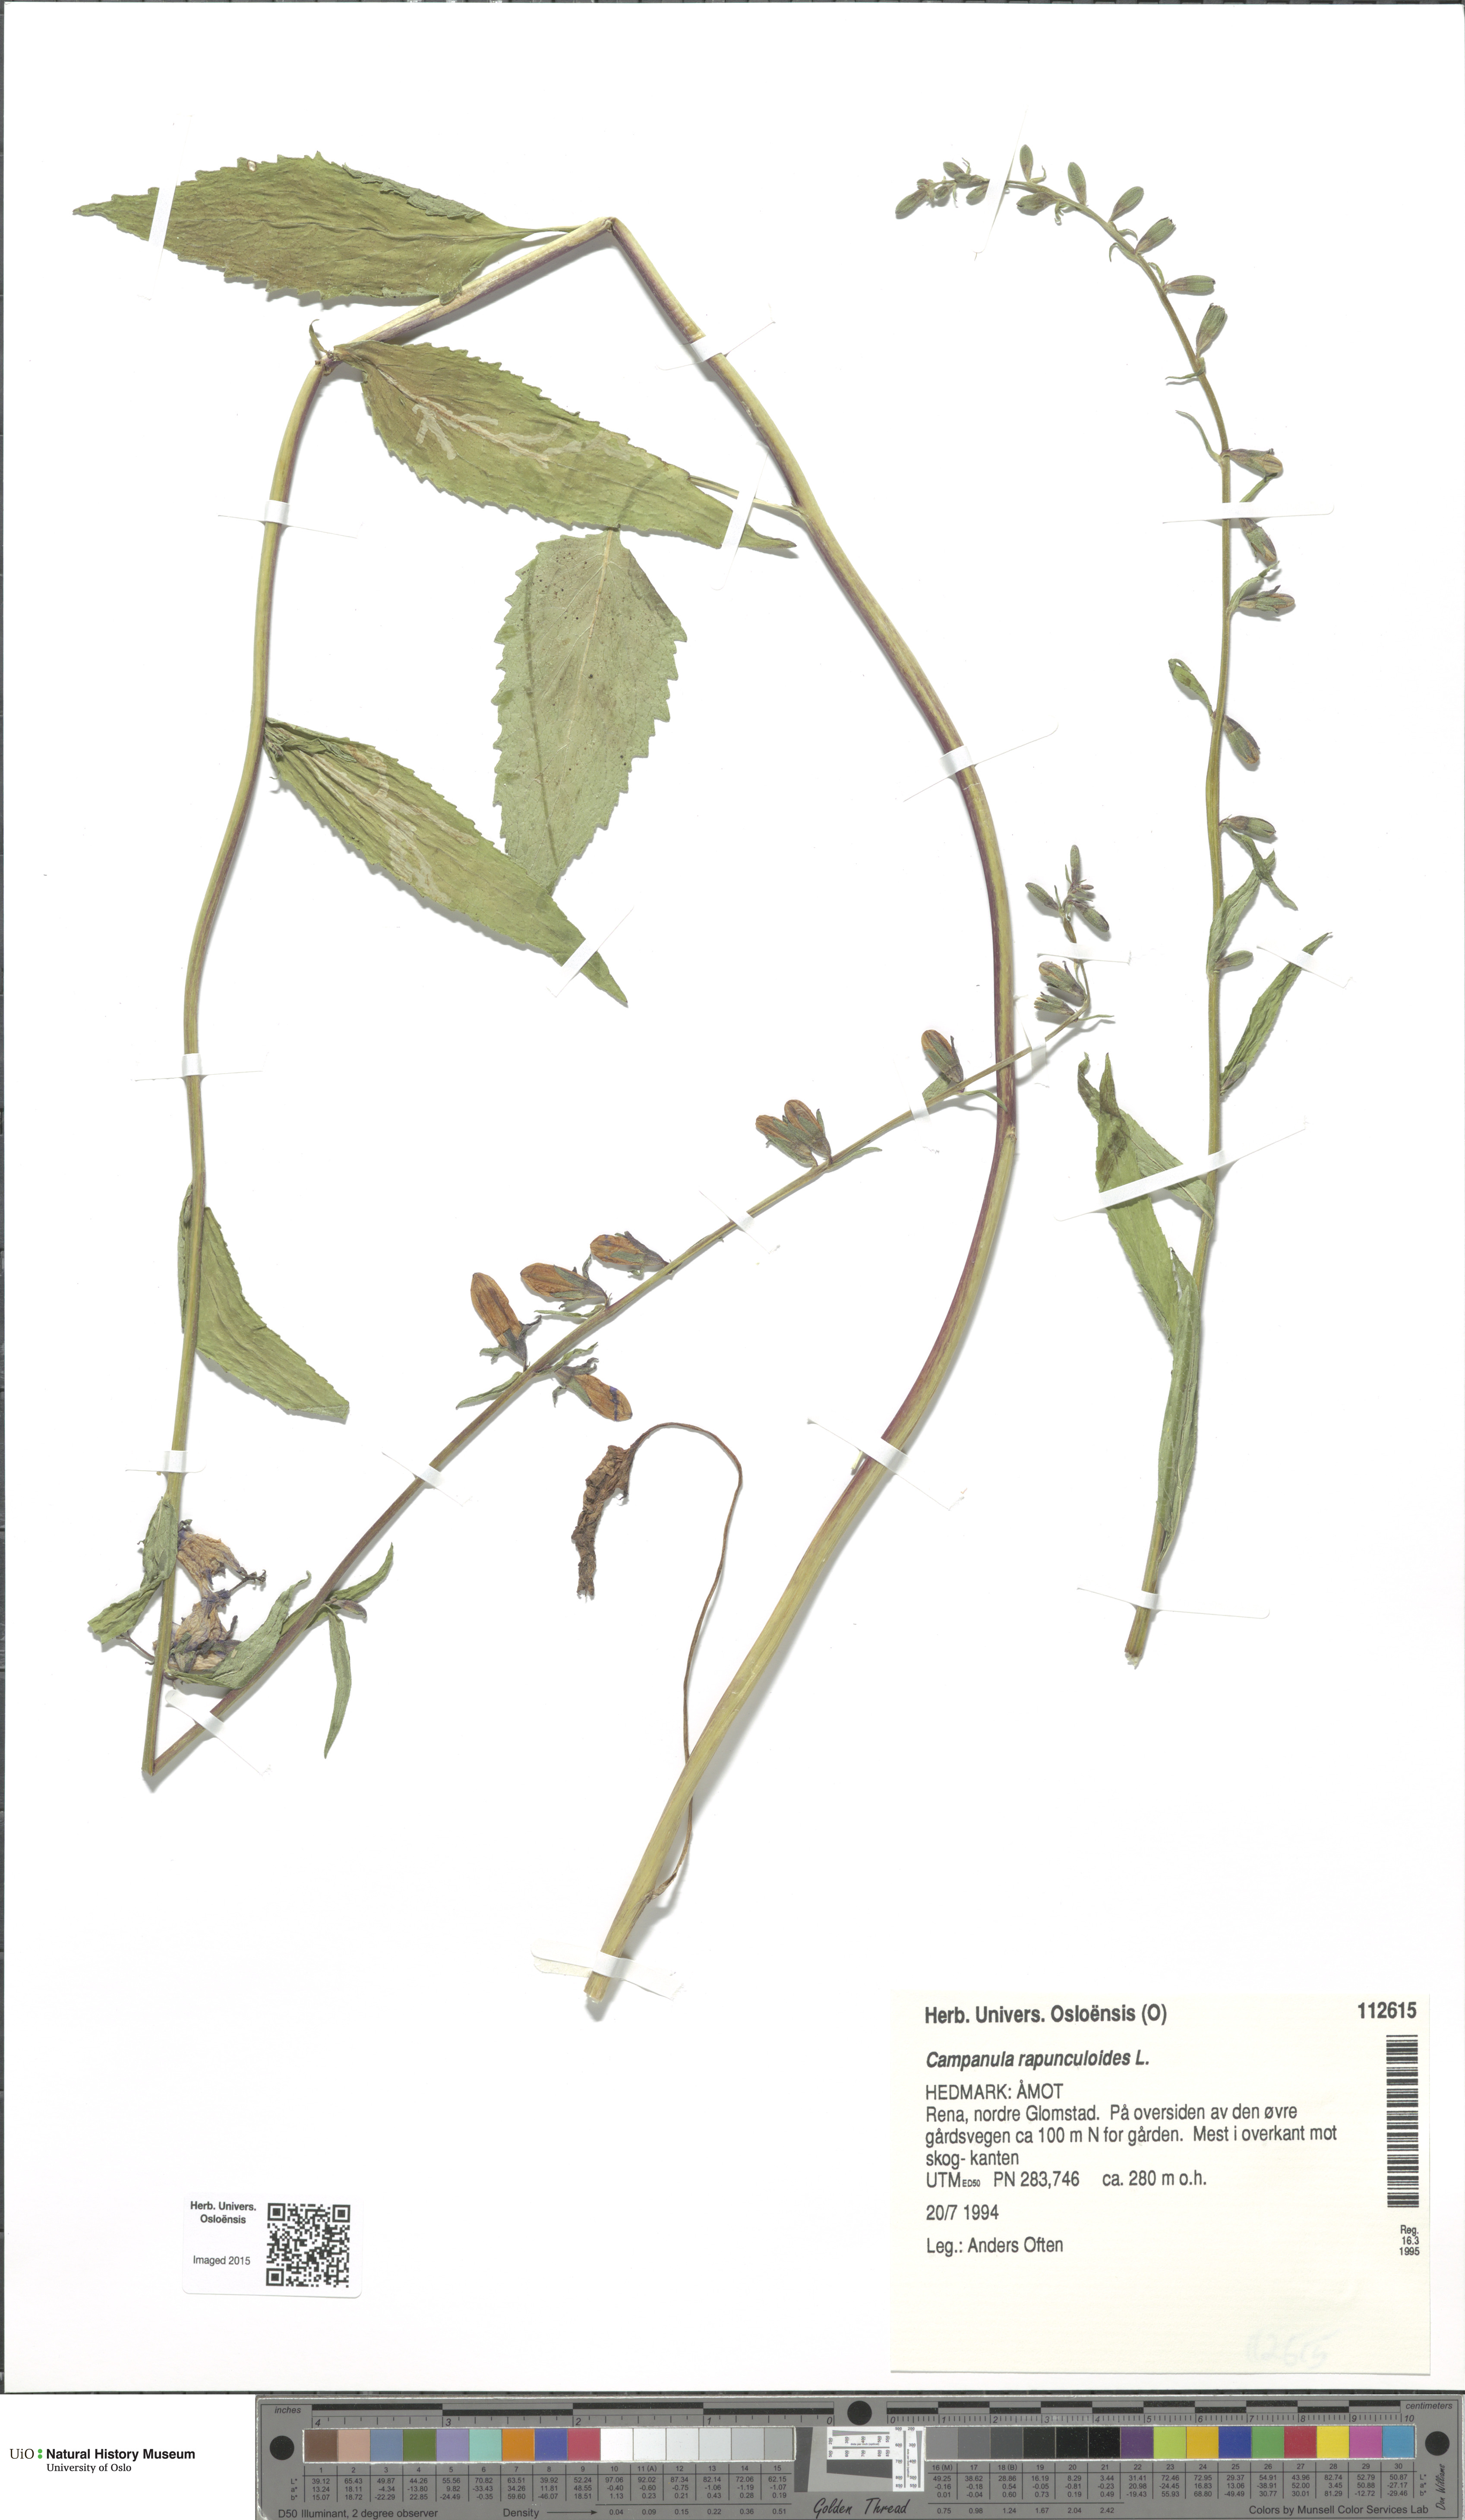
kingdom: Plantae
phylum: Tracheophyta
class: Magnoliopsida
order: Asterales
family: Campanulaceae
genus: Campanula
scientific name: Campanula rapunculoides
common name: Creeping bellflower
